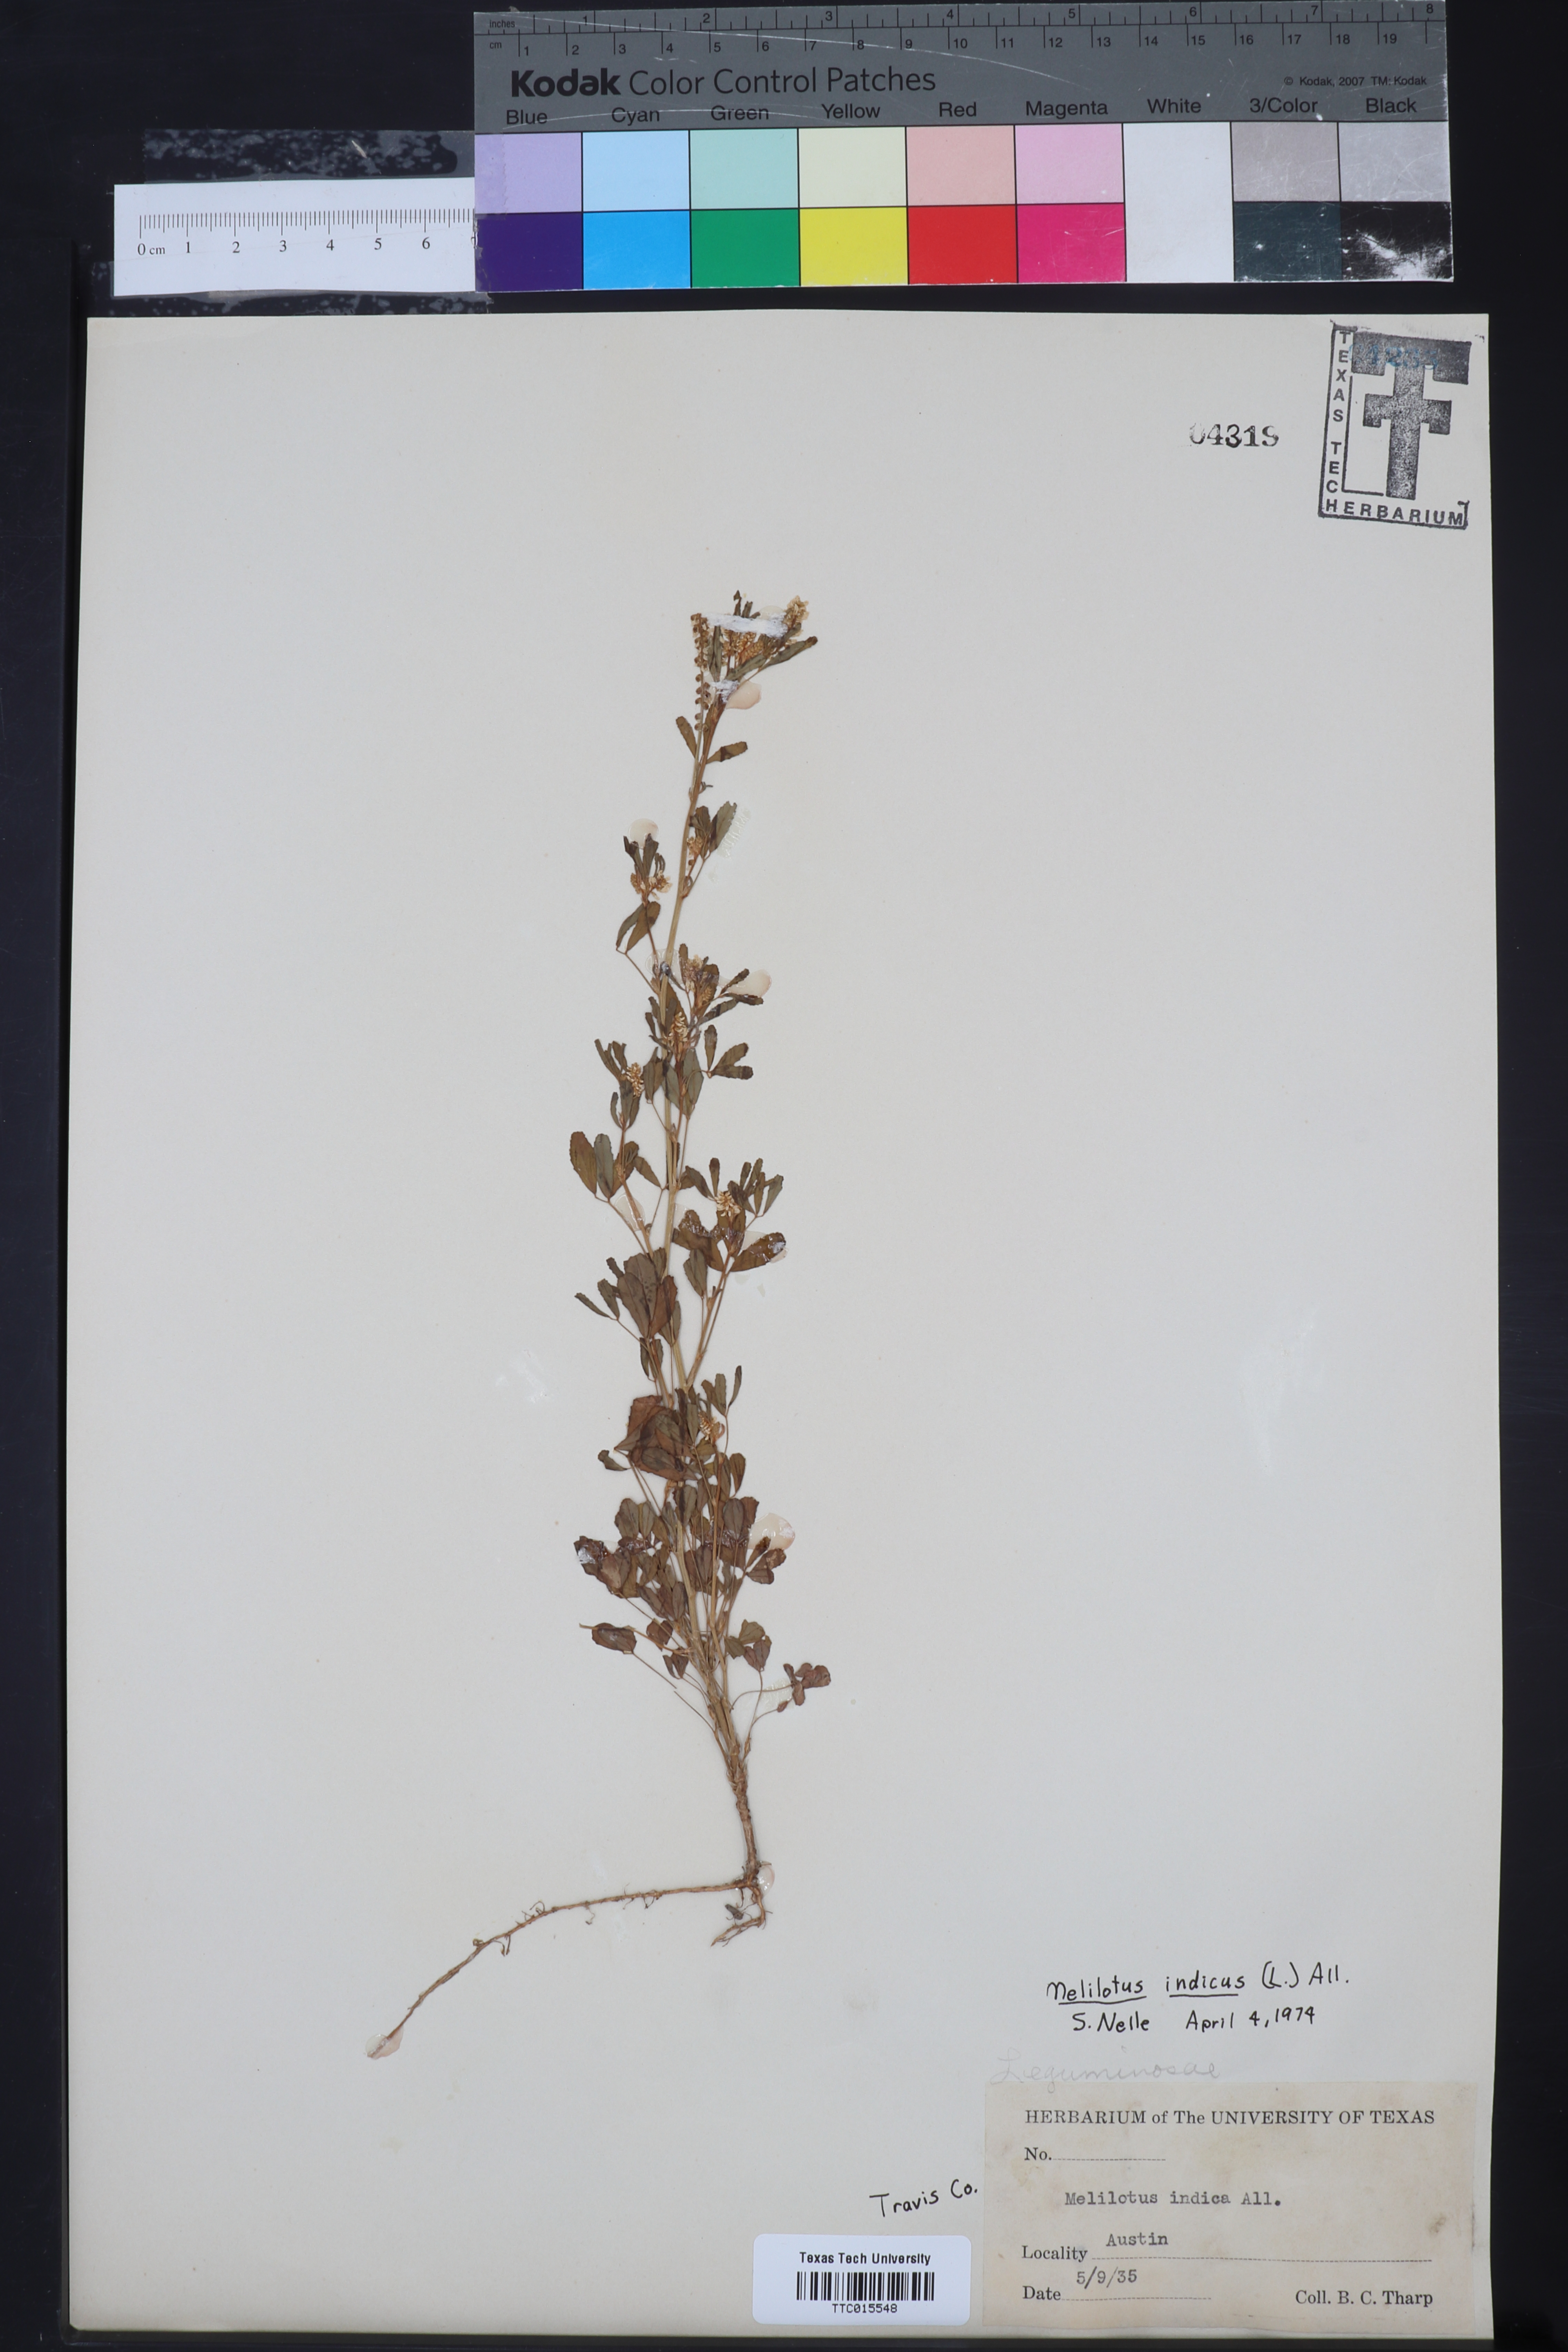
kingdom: Plantae
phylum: Tracheophyta
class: Magnoliopsida
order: Fabales
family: Fabaceae
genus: Melilotus
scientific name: Melilotus indicus
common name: Small melilot
